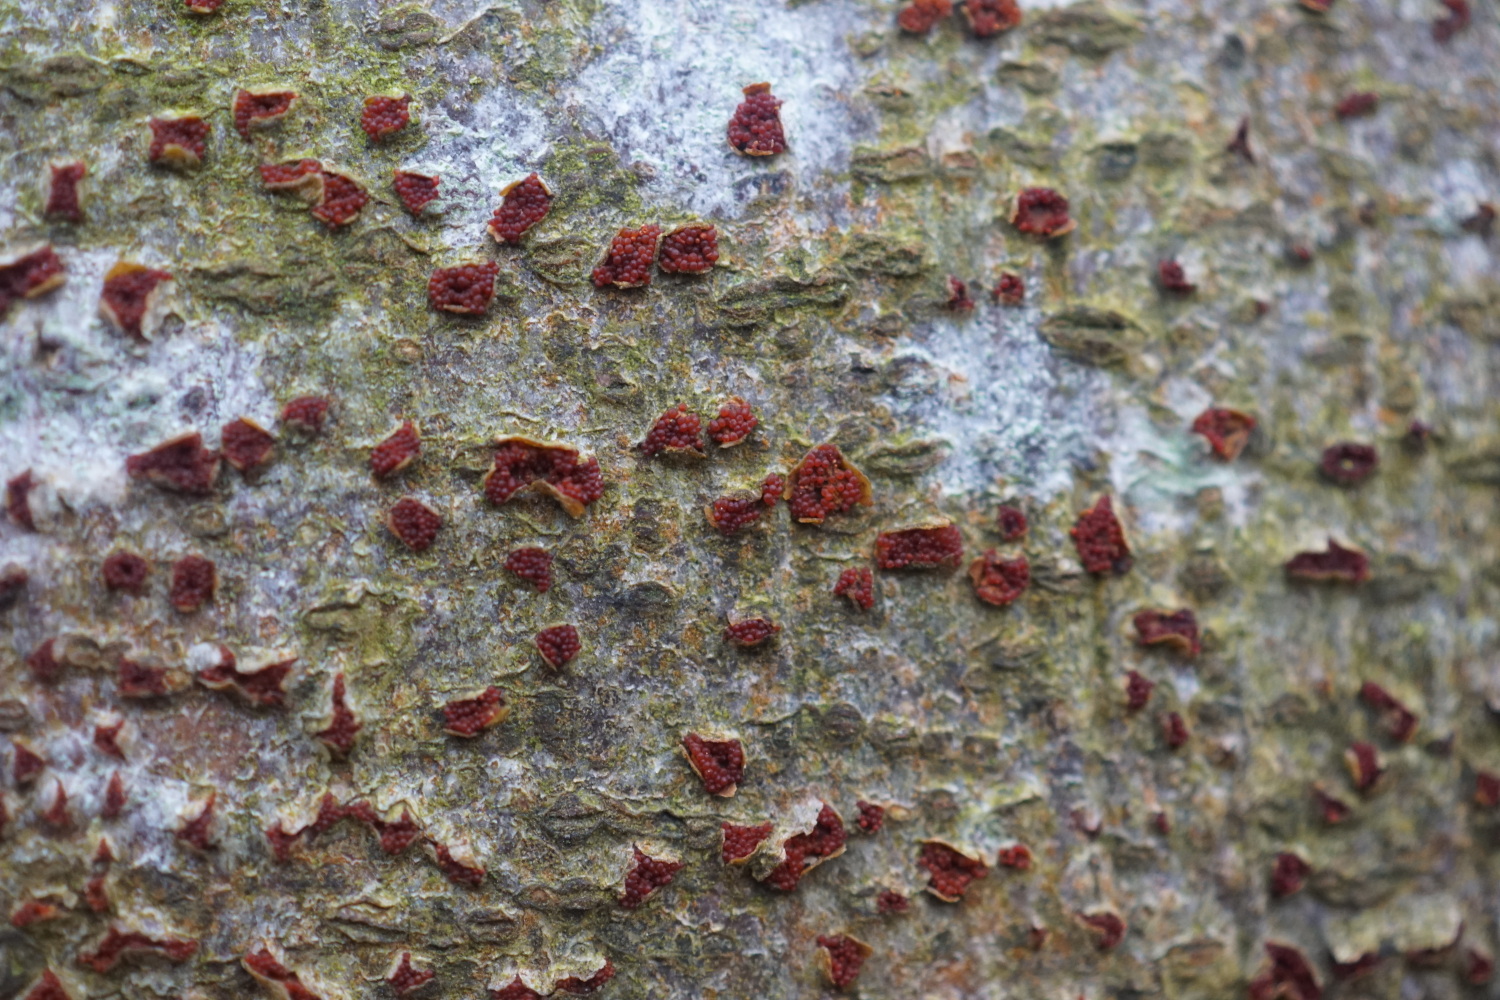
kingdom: Fungi
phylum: Ascomycota
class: Sordariomycetes
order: Hypocreales
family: Nectriaceae
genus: Neonectria
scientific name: Neonectria coccinea
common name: bøgebark-cinnobersvamp
